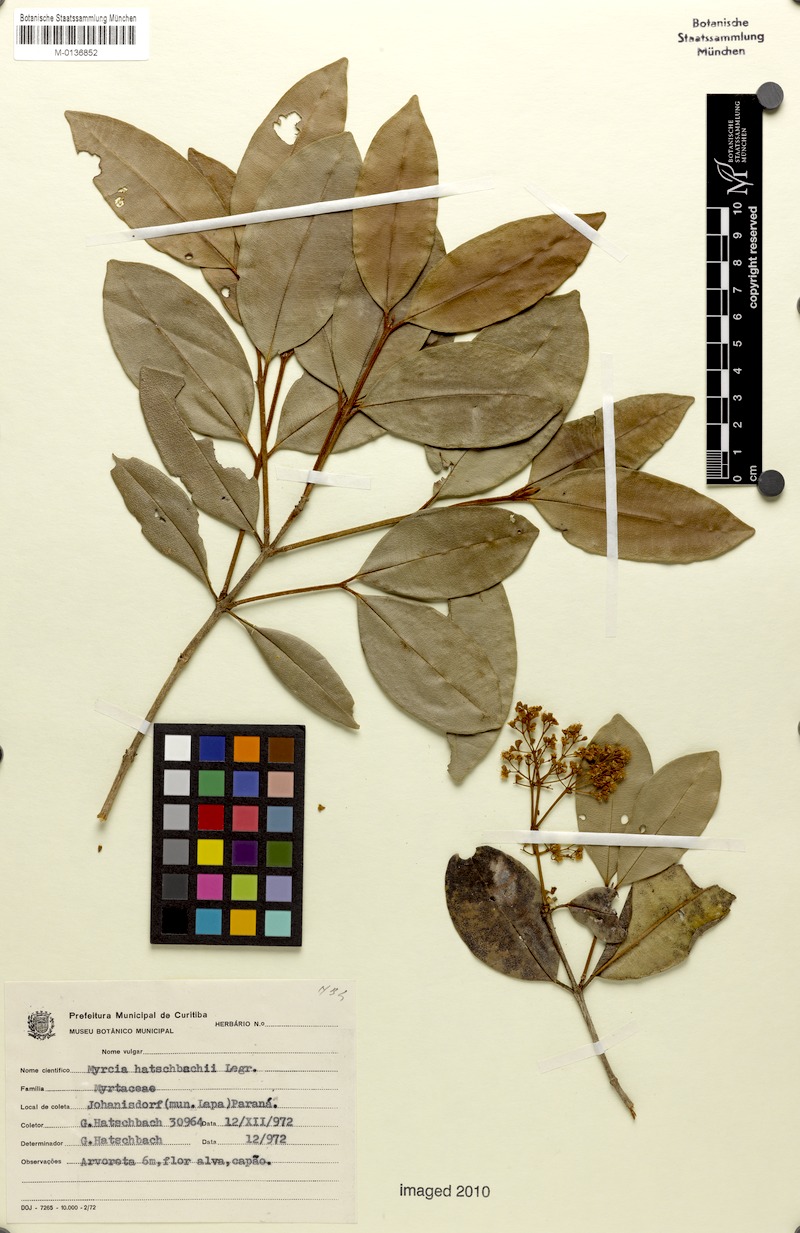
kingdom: Plantae
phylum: Tracheophyta
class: Magnoliopsida
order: Myrtales
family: Myrtaceae
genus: Myrcia
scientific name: Myrcia hatschbachii
